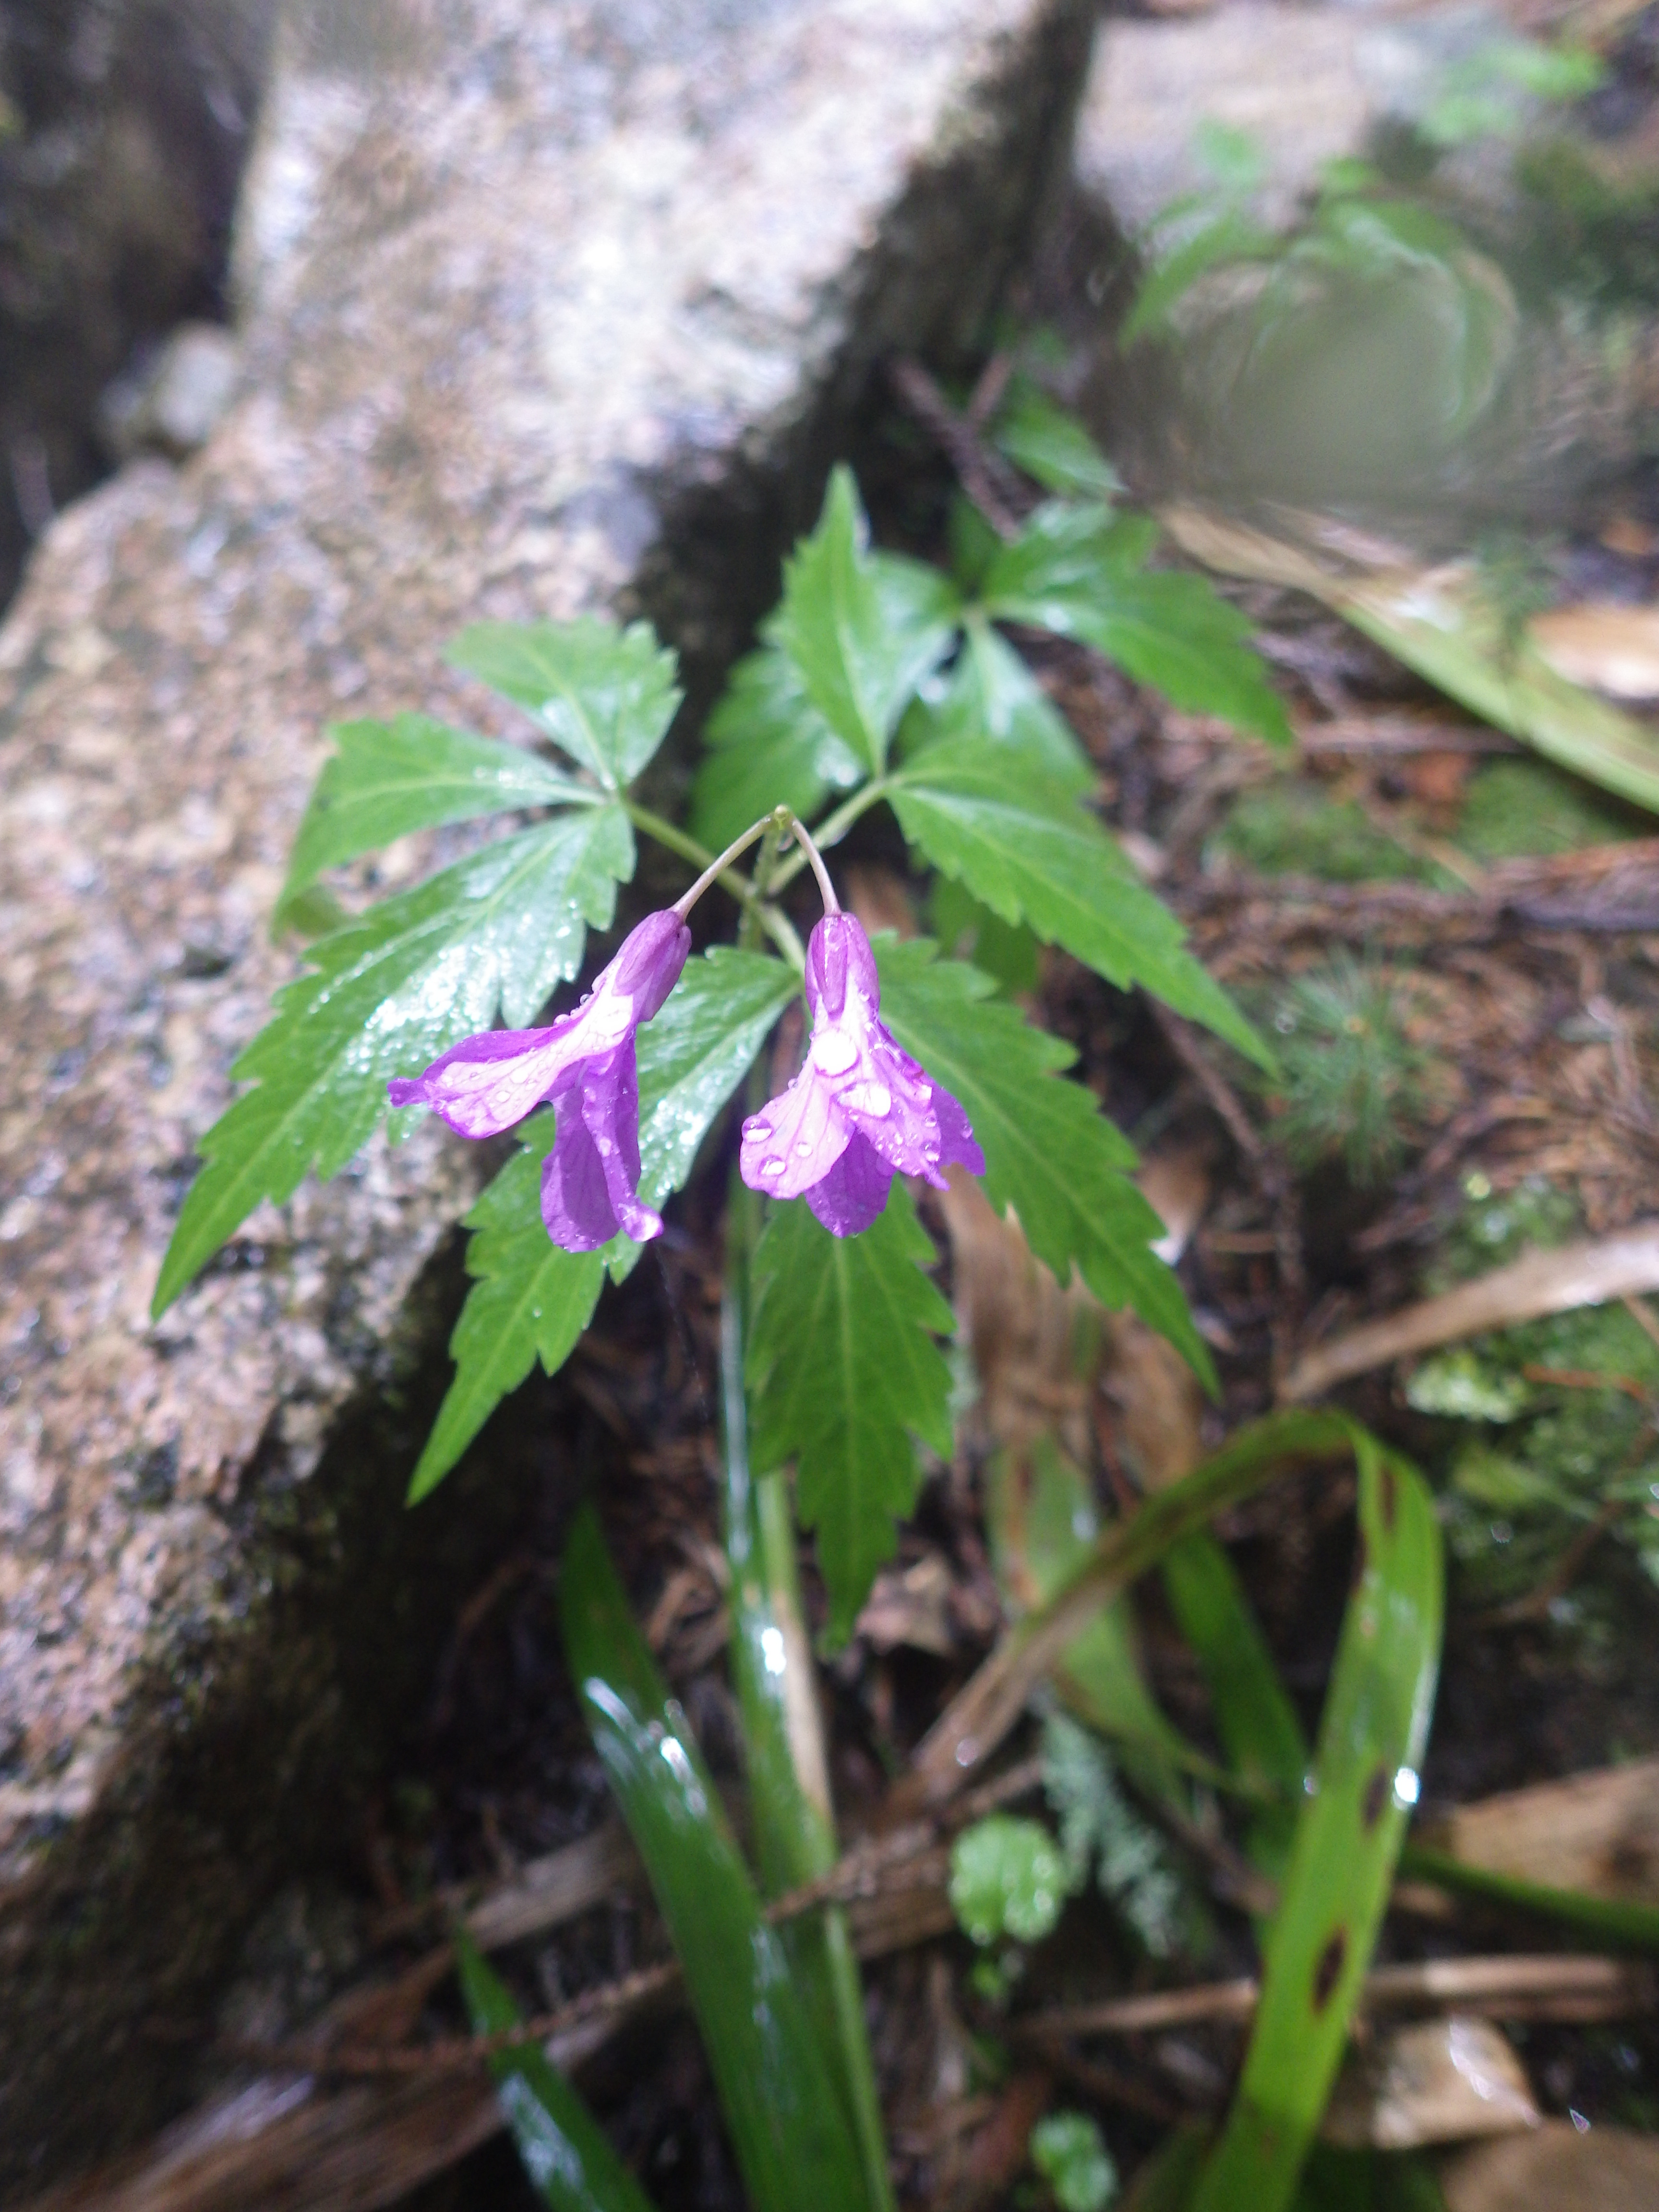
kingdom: Plantae
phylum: Tracheophyta
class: Magnoliopsida
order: Brassicales
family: Brassicaceae
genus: Cardamine
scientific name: Cardamine quinquefolia
